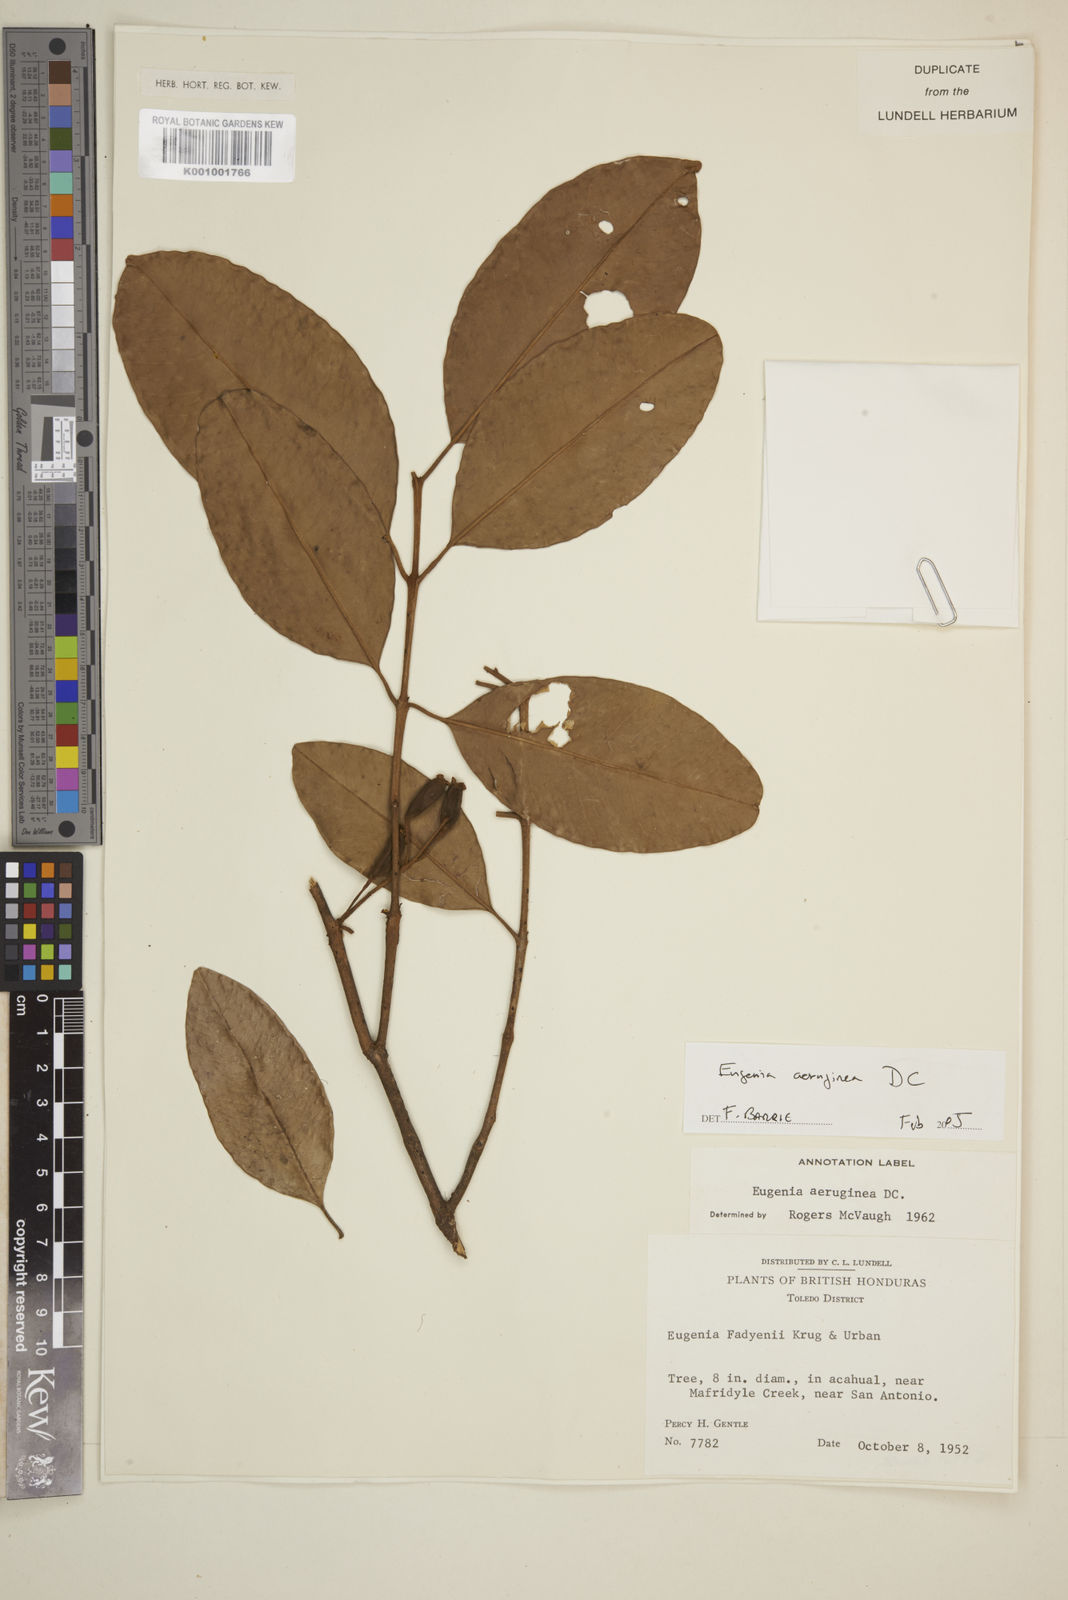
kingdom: Plantae
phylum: Tracheophyta
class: Magnoliopsida
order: Myrtales
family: Myrtaceae
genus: Eugenia
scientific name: Eugenia aeruginea
